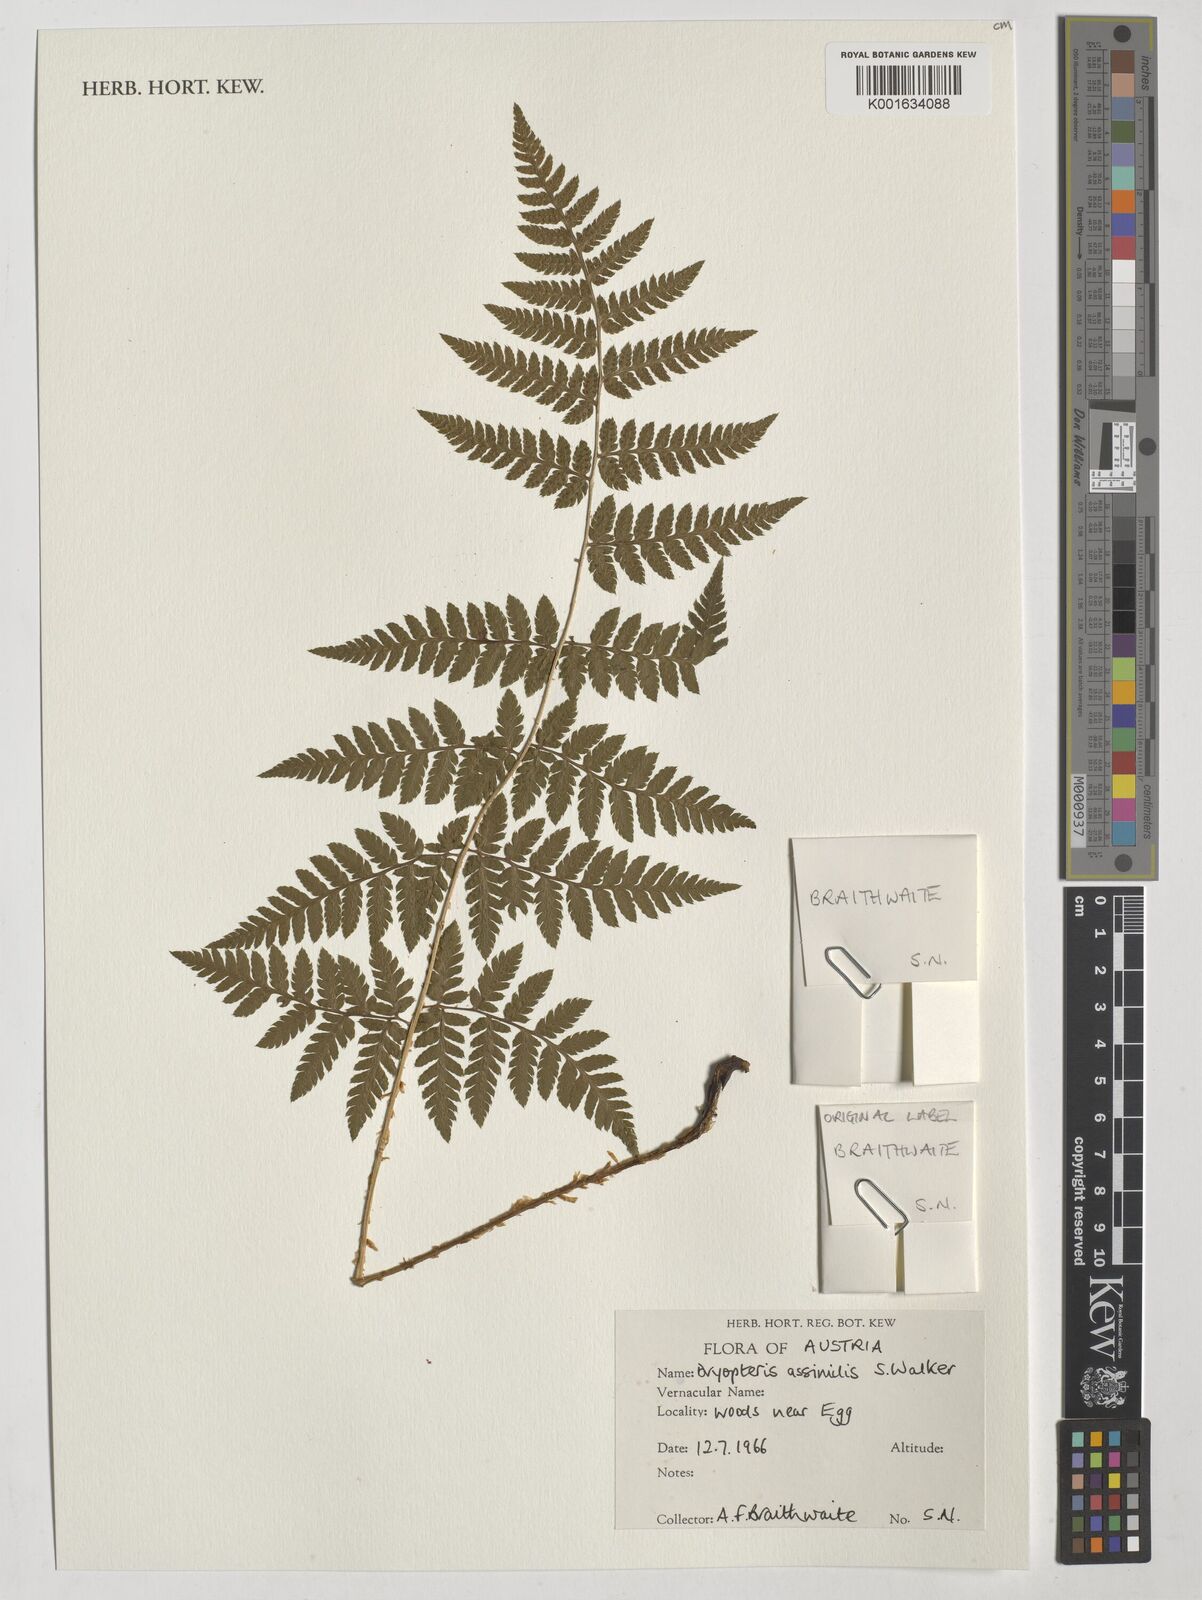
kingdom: Plantae
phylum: Tracheophyta
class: Polypodiopsida
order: Polypodiales
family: Dryopteridaceae
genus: Dryopteris
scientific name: Dryopteris expansa
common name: Northern buckler fern
